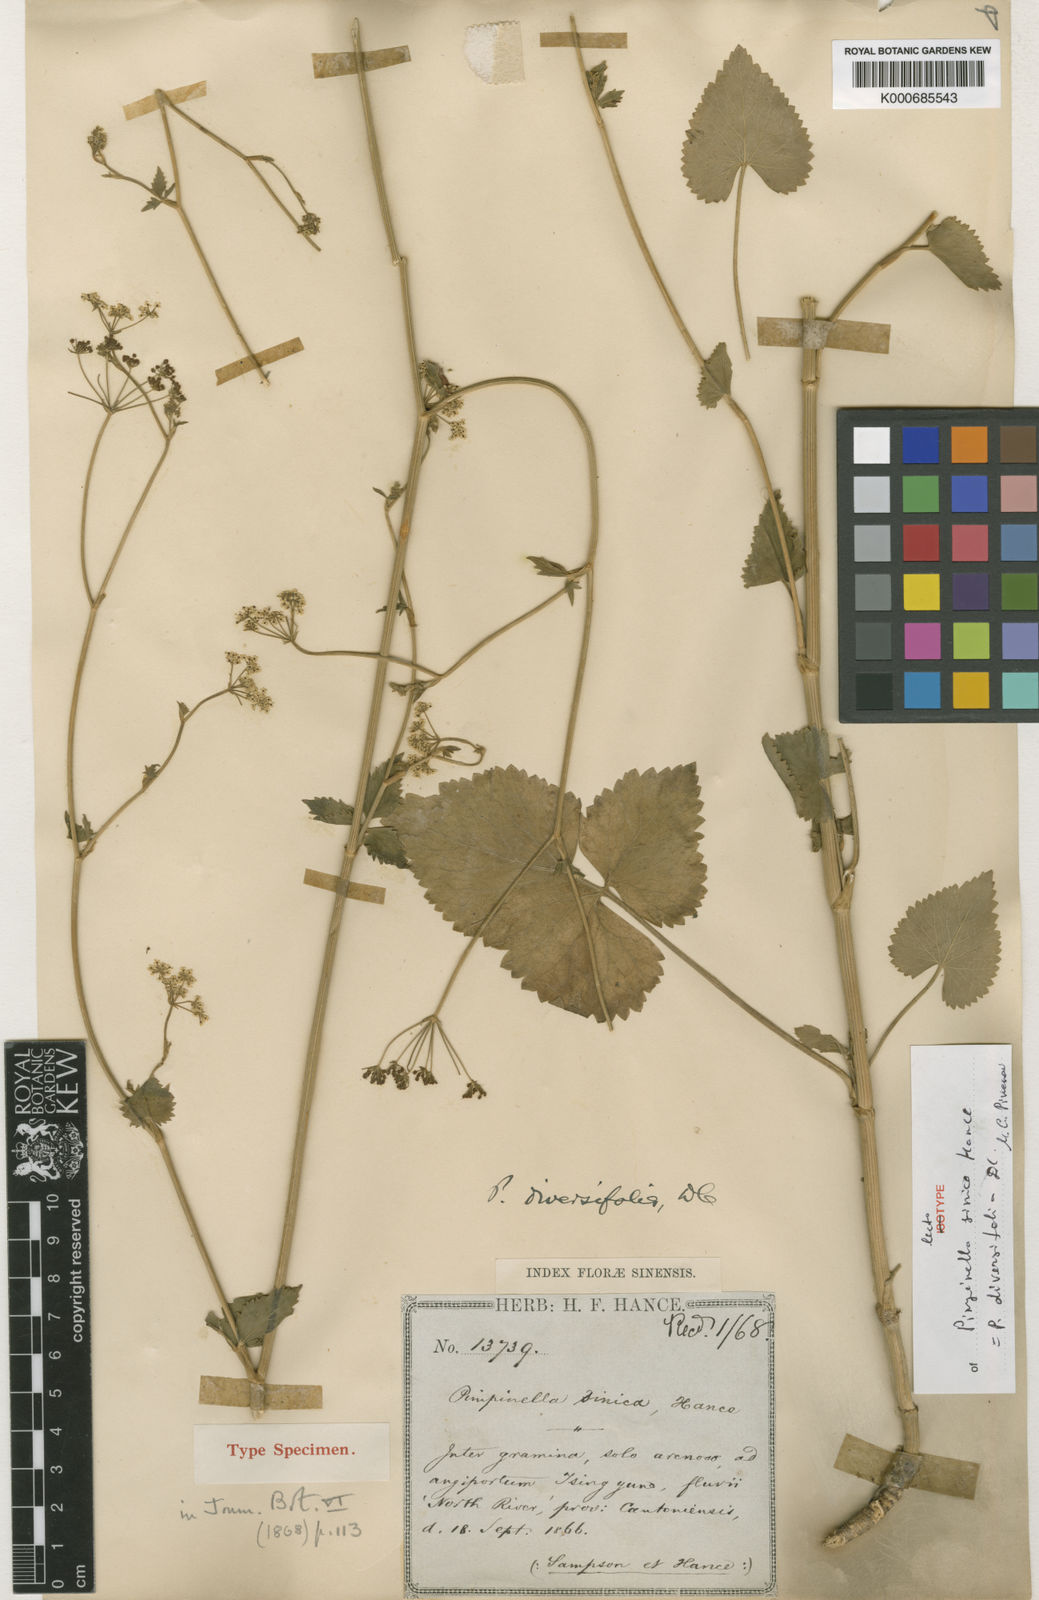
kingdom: Plantae
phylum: Tracheophyta
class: Magnoliopsida
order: Apiales
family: Apiaceae
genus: Pimpinella
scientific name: Pimpinella diversifolia
